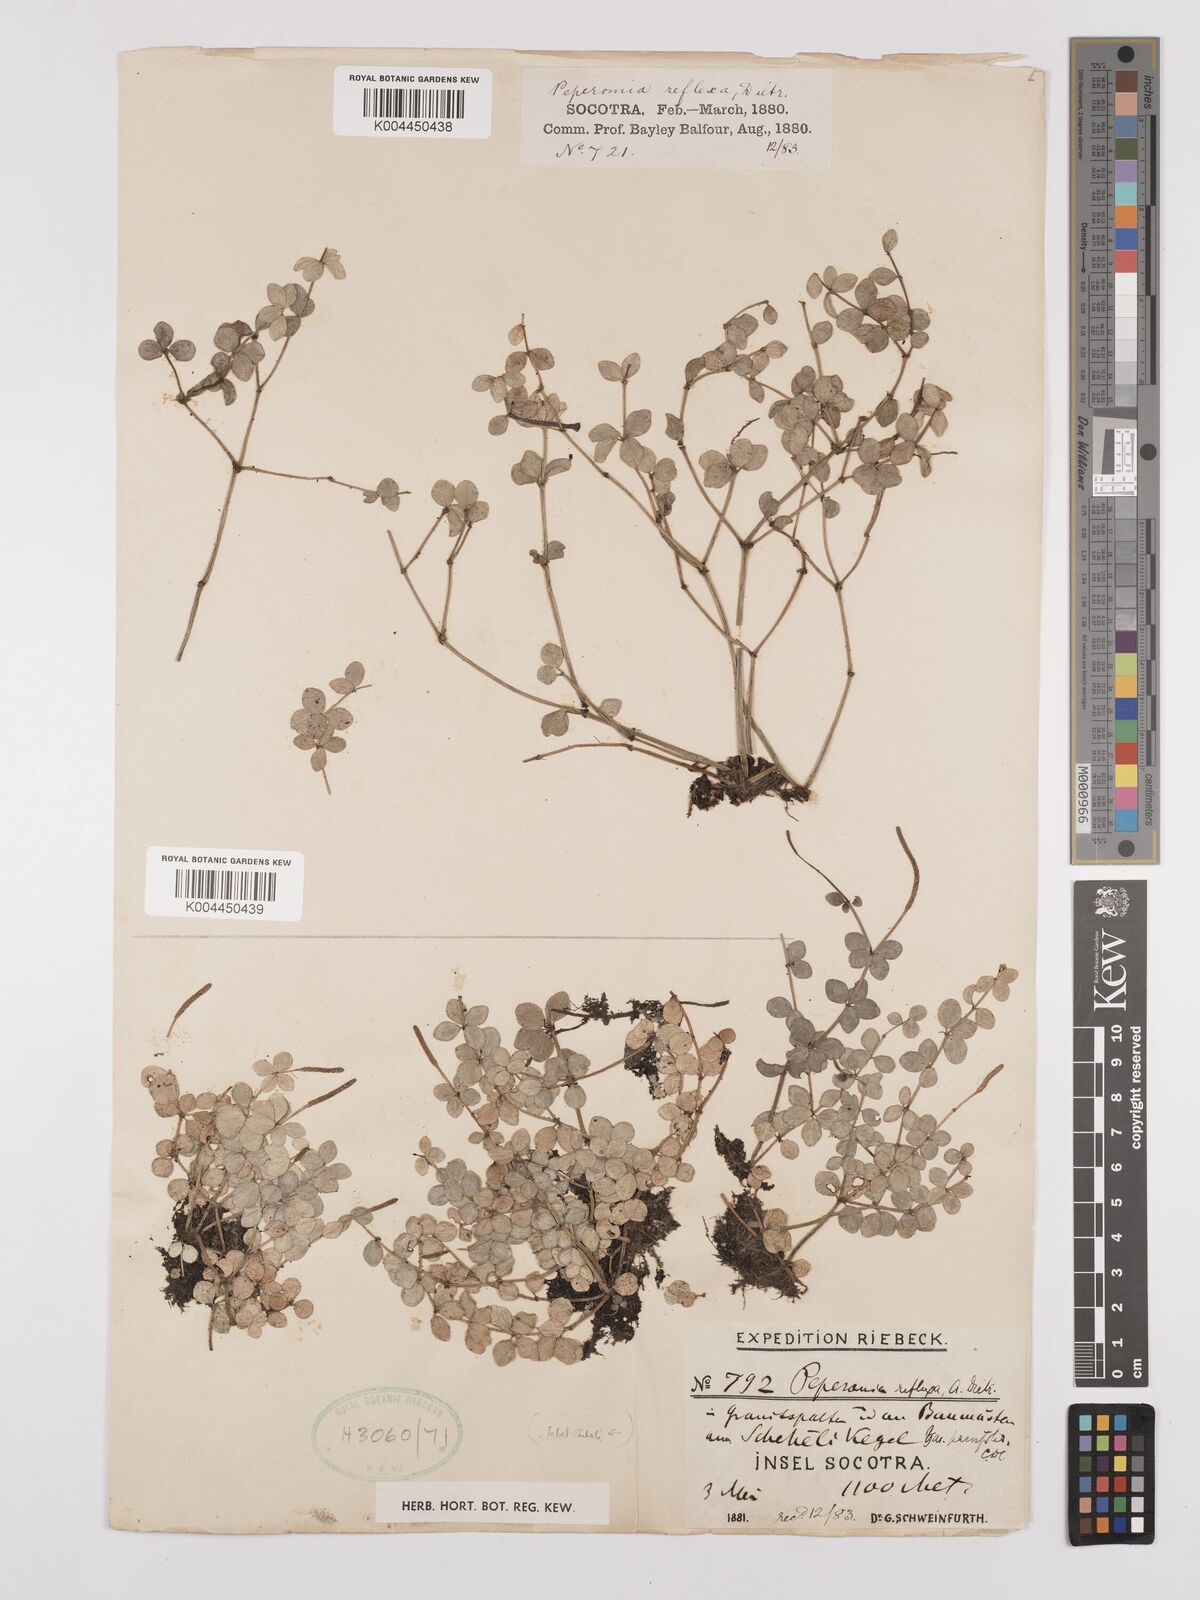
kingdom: Plantae
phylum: Tracheophyta
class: Magnoliopsida
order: Piperales
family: Piperaceae
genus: Peperomia
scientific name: Peperomia tetraphylla
